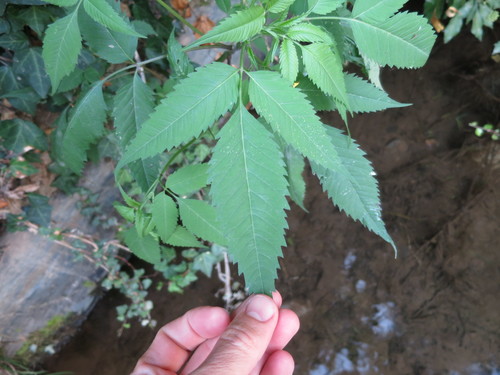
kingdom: Plantae
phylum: Tracheophyta
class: Magnoliopsida
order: Asterales
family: Asteraceae
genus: Bidens
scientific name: Bidens frondosa
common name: Beggarticks
